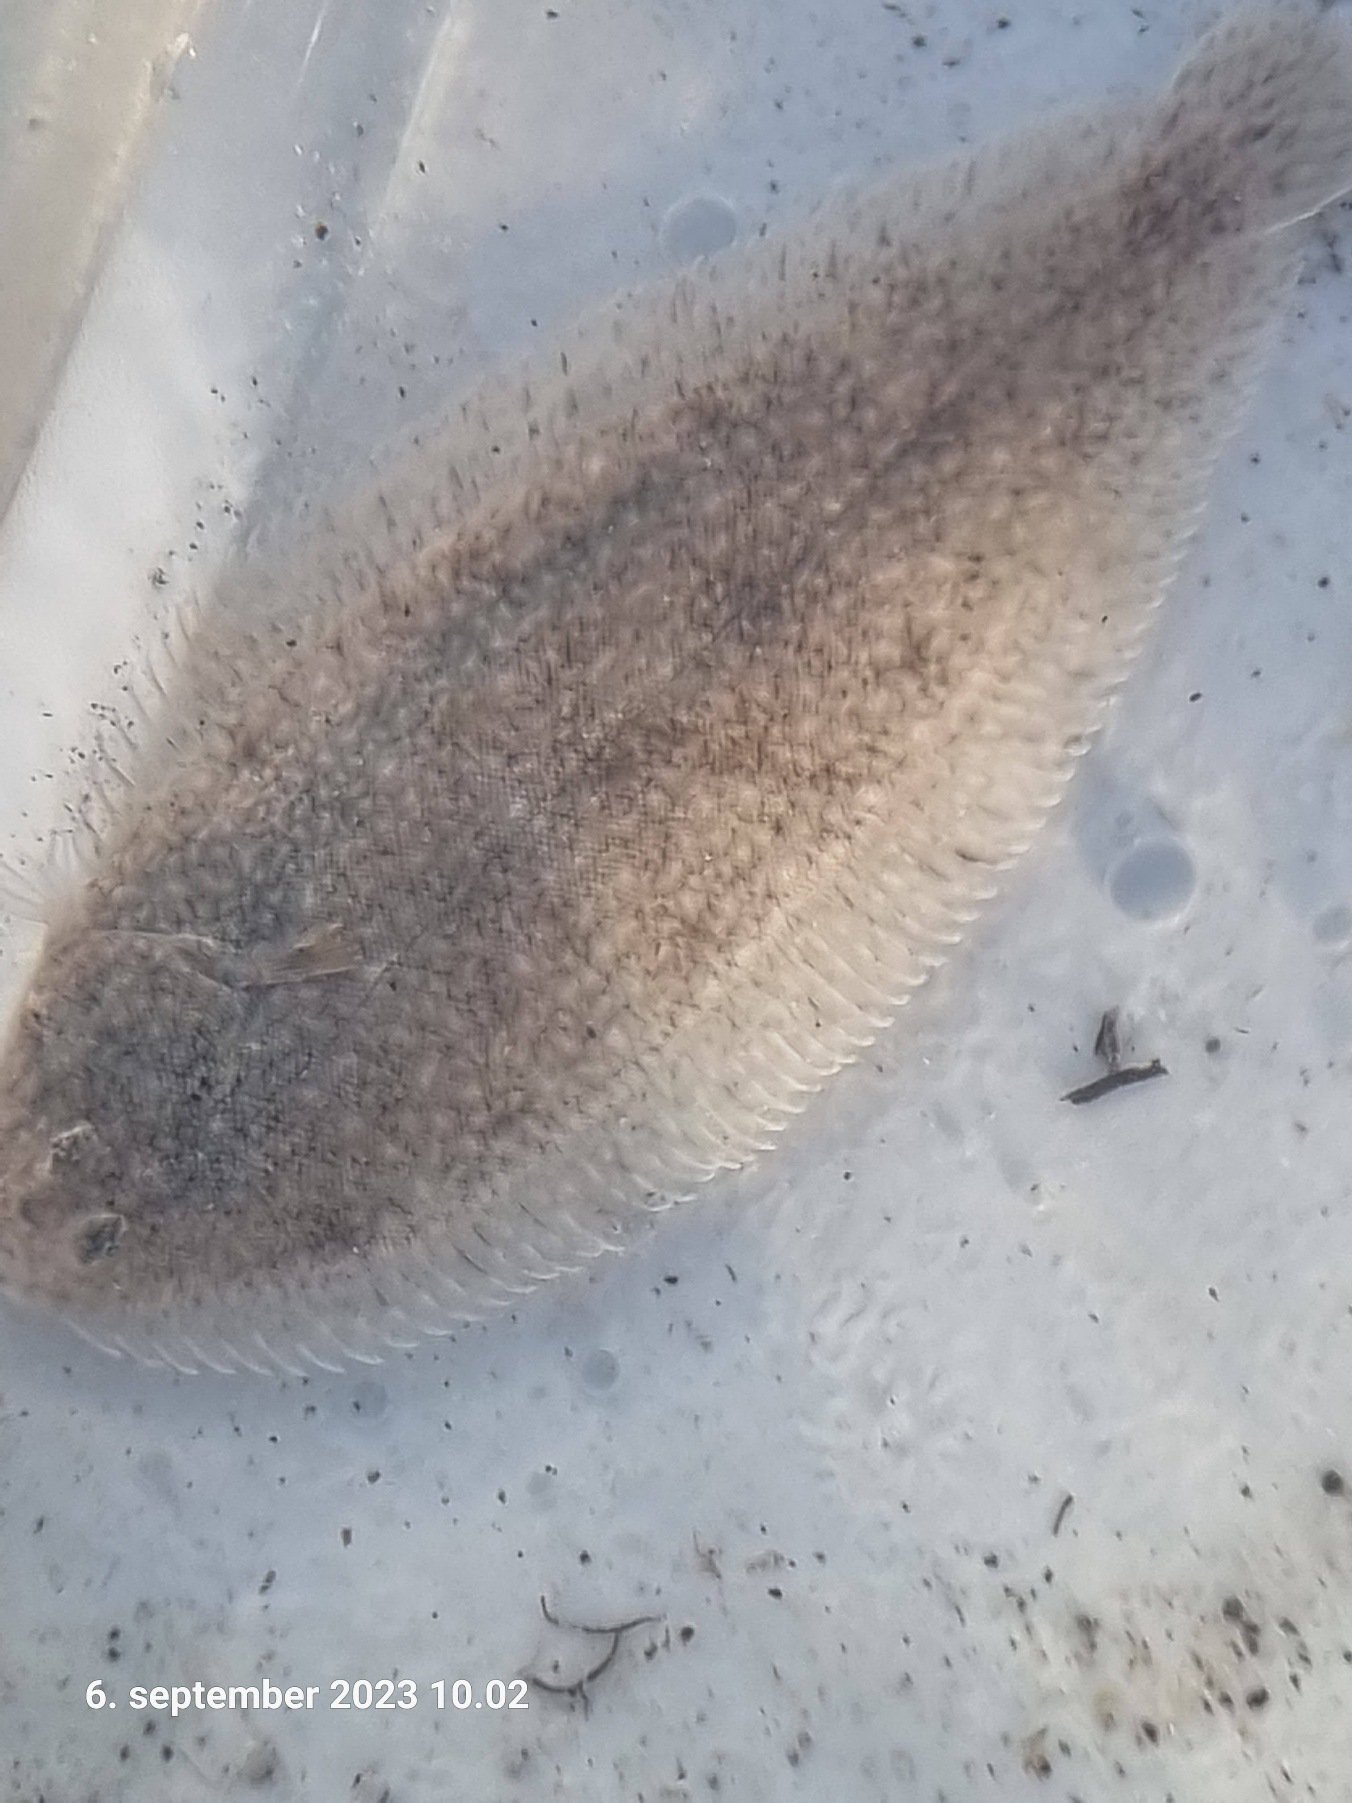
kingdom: Animalia
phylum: Chordata
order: Pleuronectiformes
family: Soleidae
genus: Solea
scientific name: Solea solea
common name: Tunge
